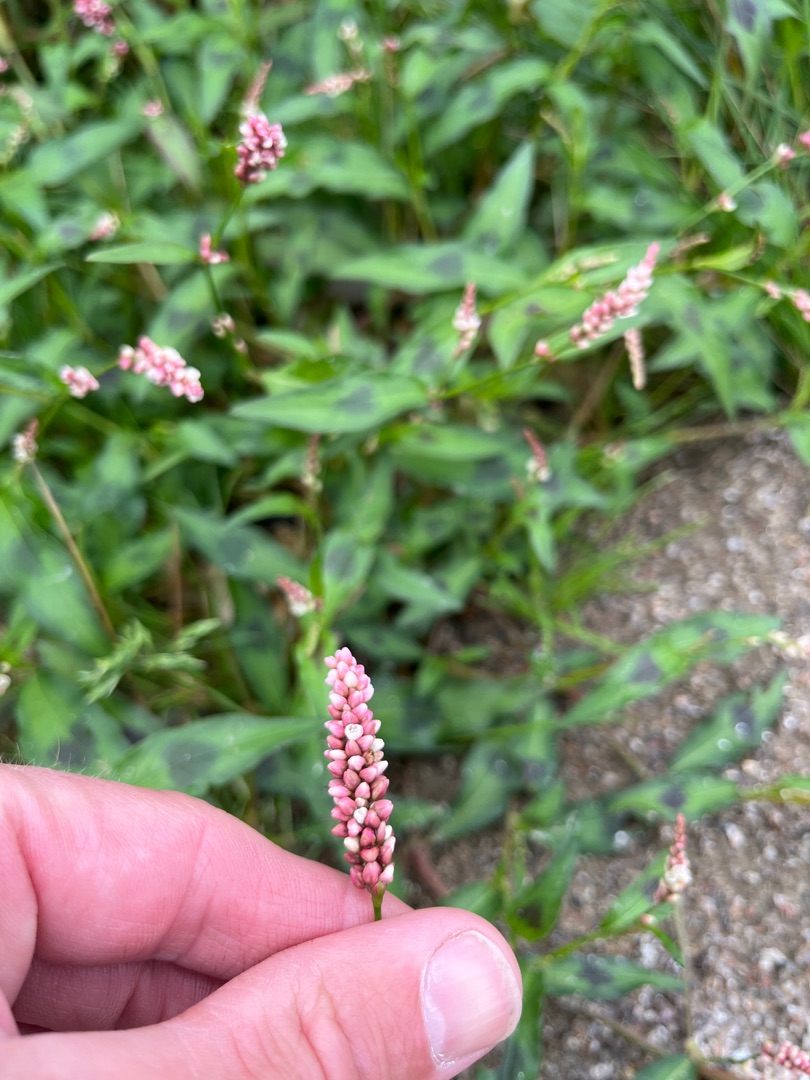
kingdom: Plantae
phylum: Tracheophyta
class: Magnoliopsida
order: Caryophyllales
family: Polygonaceae
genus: Persicaria
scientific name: Persicaria maculosa
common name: Fersken-pileurt
